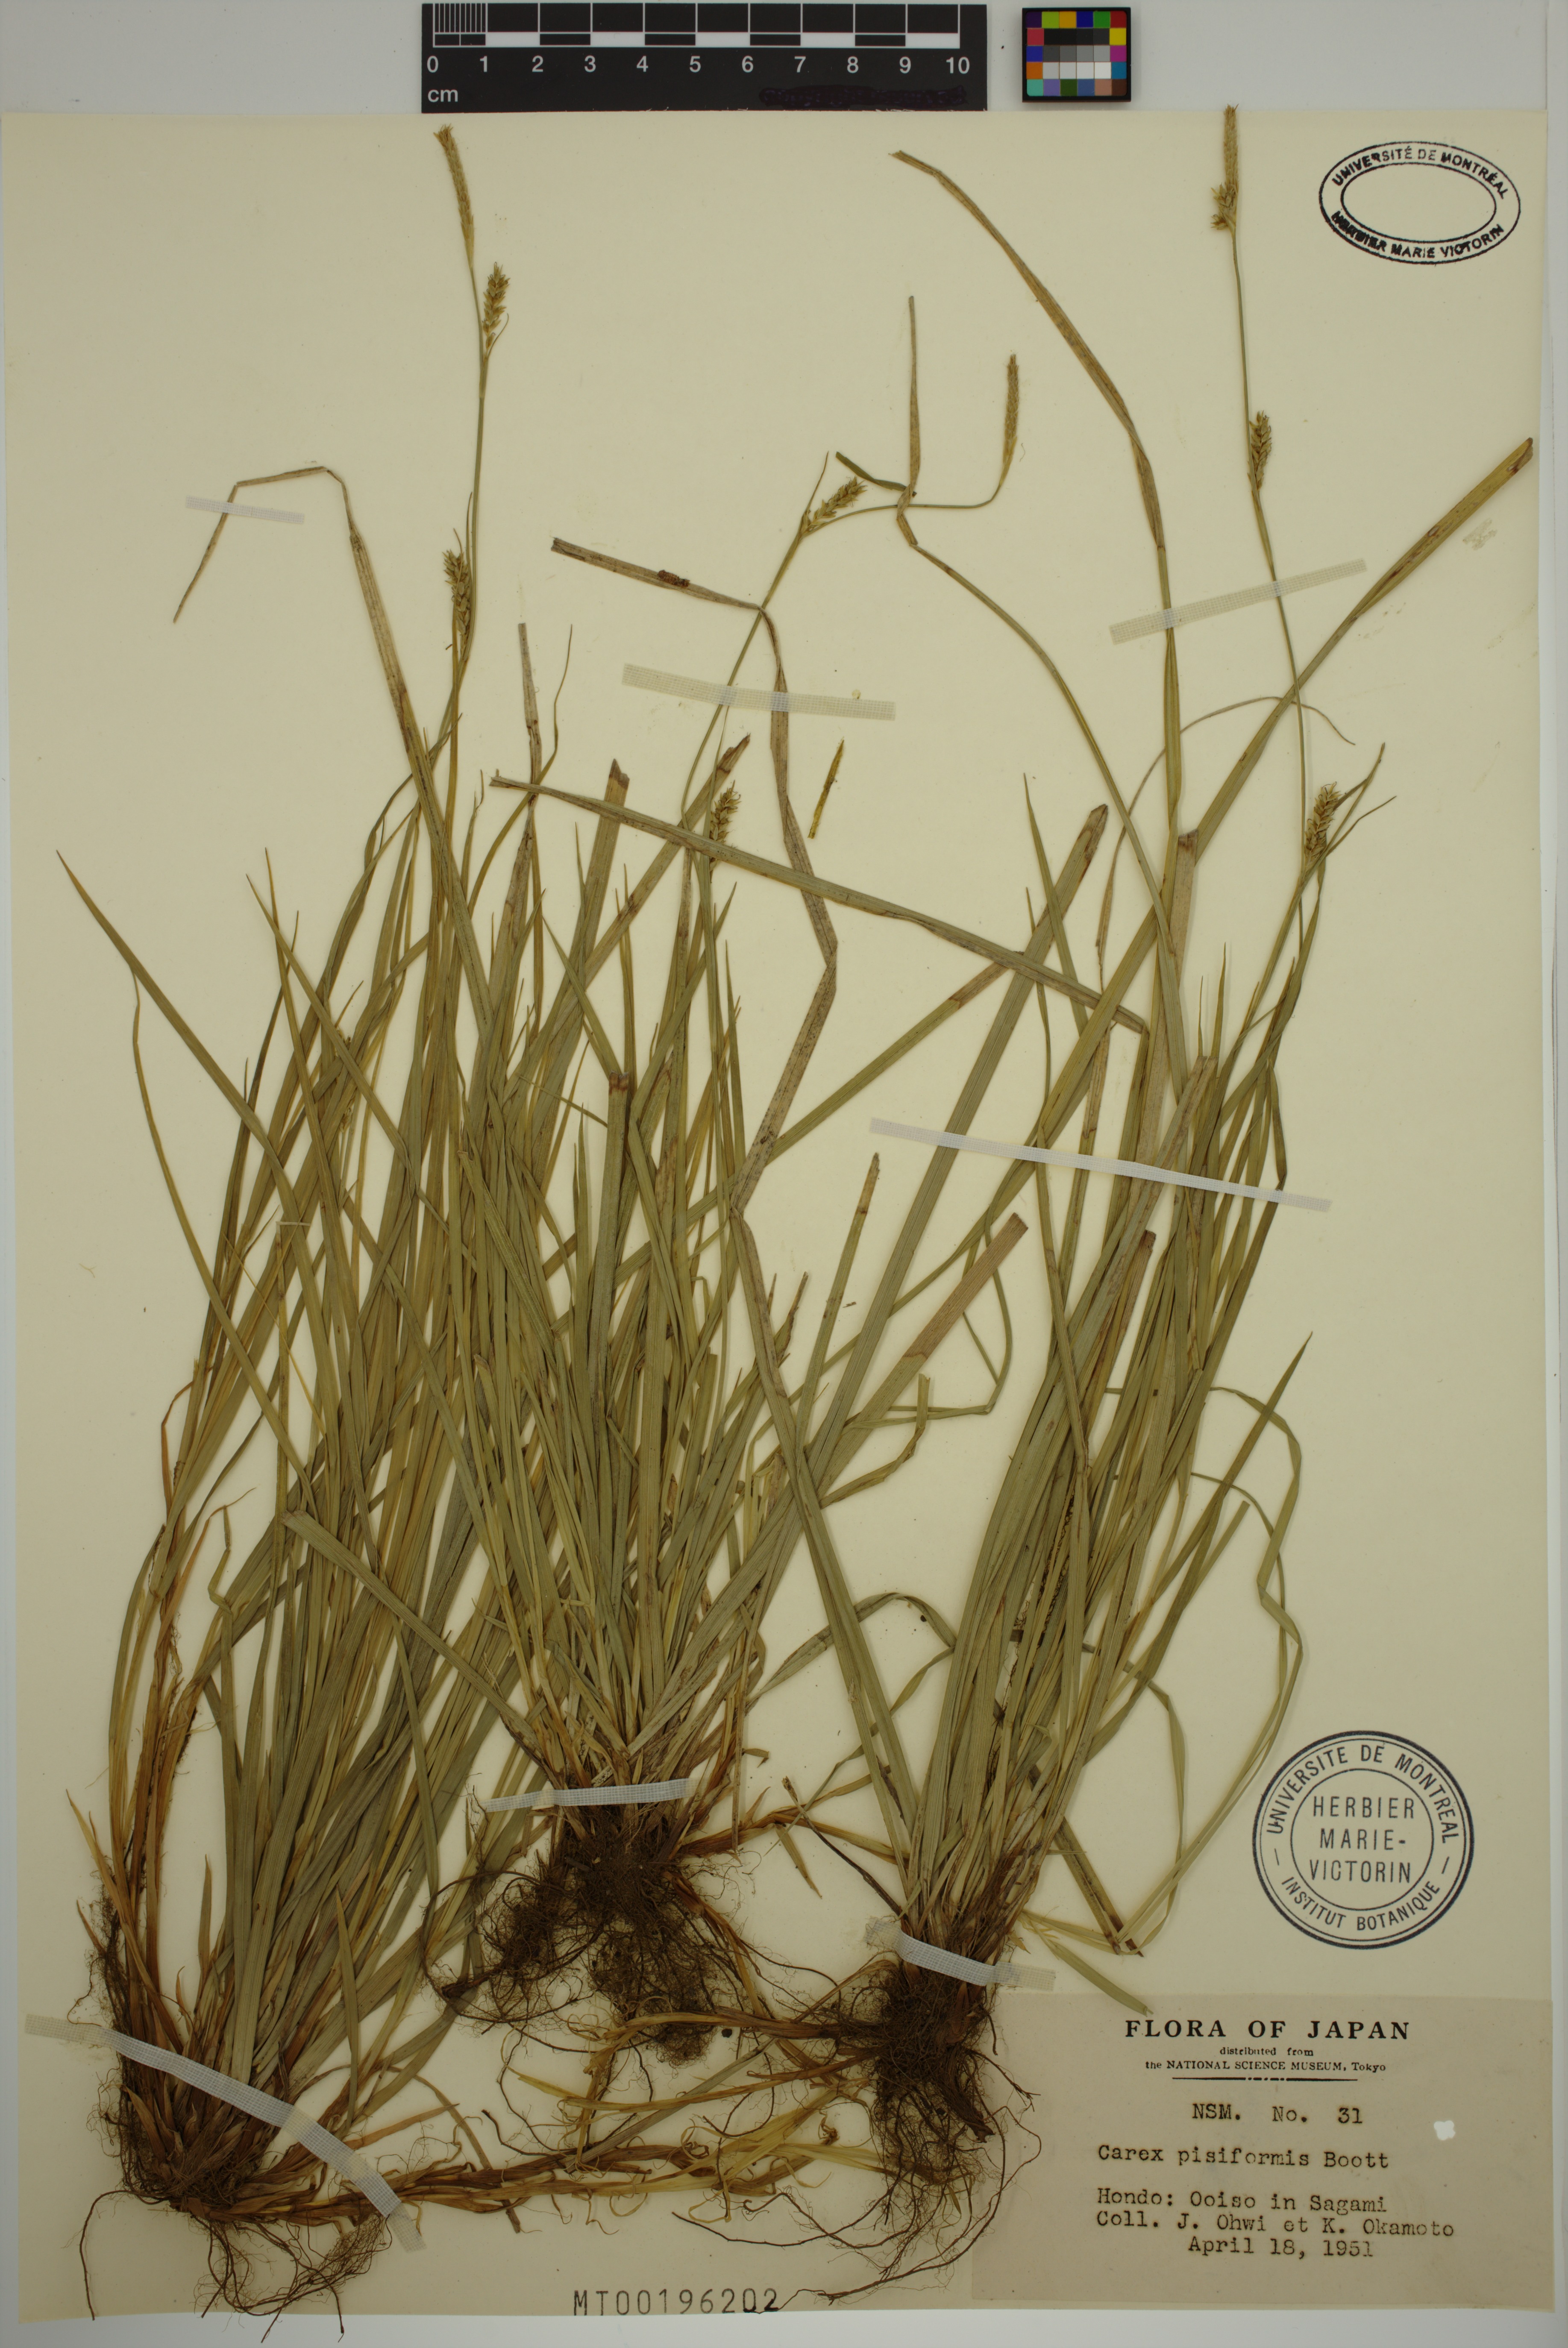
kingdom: Plantae
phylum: Tracheophyta
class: Liliopsida
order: Poales
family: Cyperaceae
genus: Carex
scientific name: Carex pisiformis
